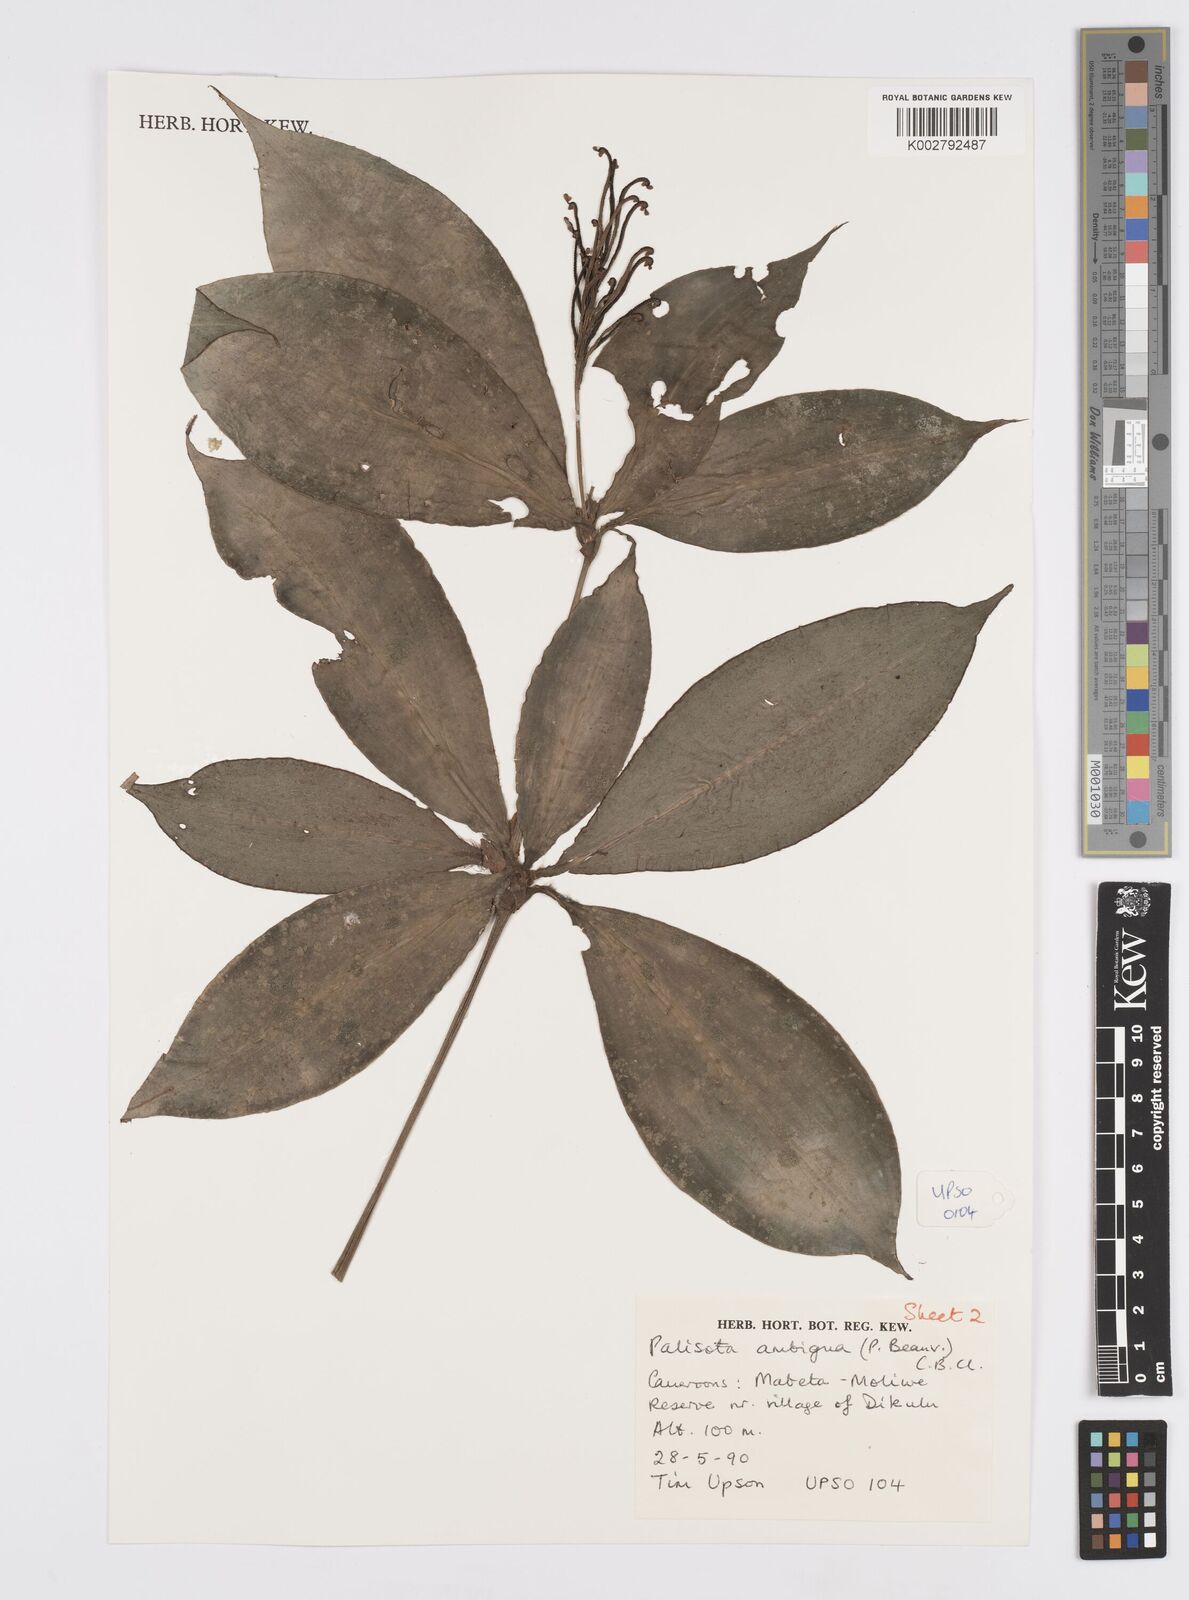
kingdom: Plantae
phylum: Tracheophyta
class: Liliopsida
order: Commelinales
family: Commelinaceae
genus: Palisota
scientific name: Palisota ambigua
